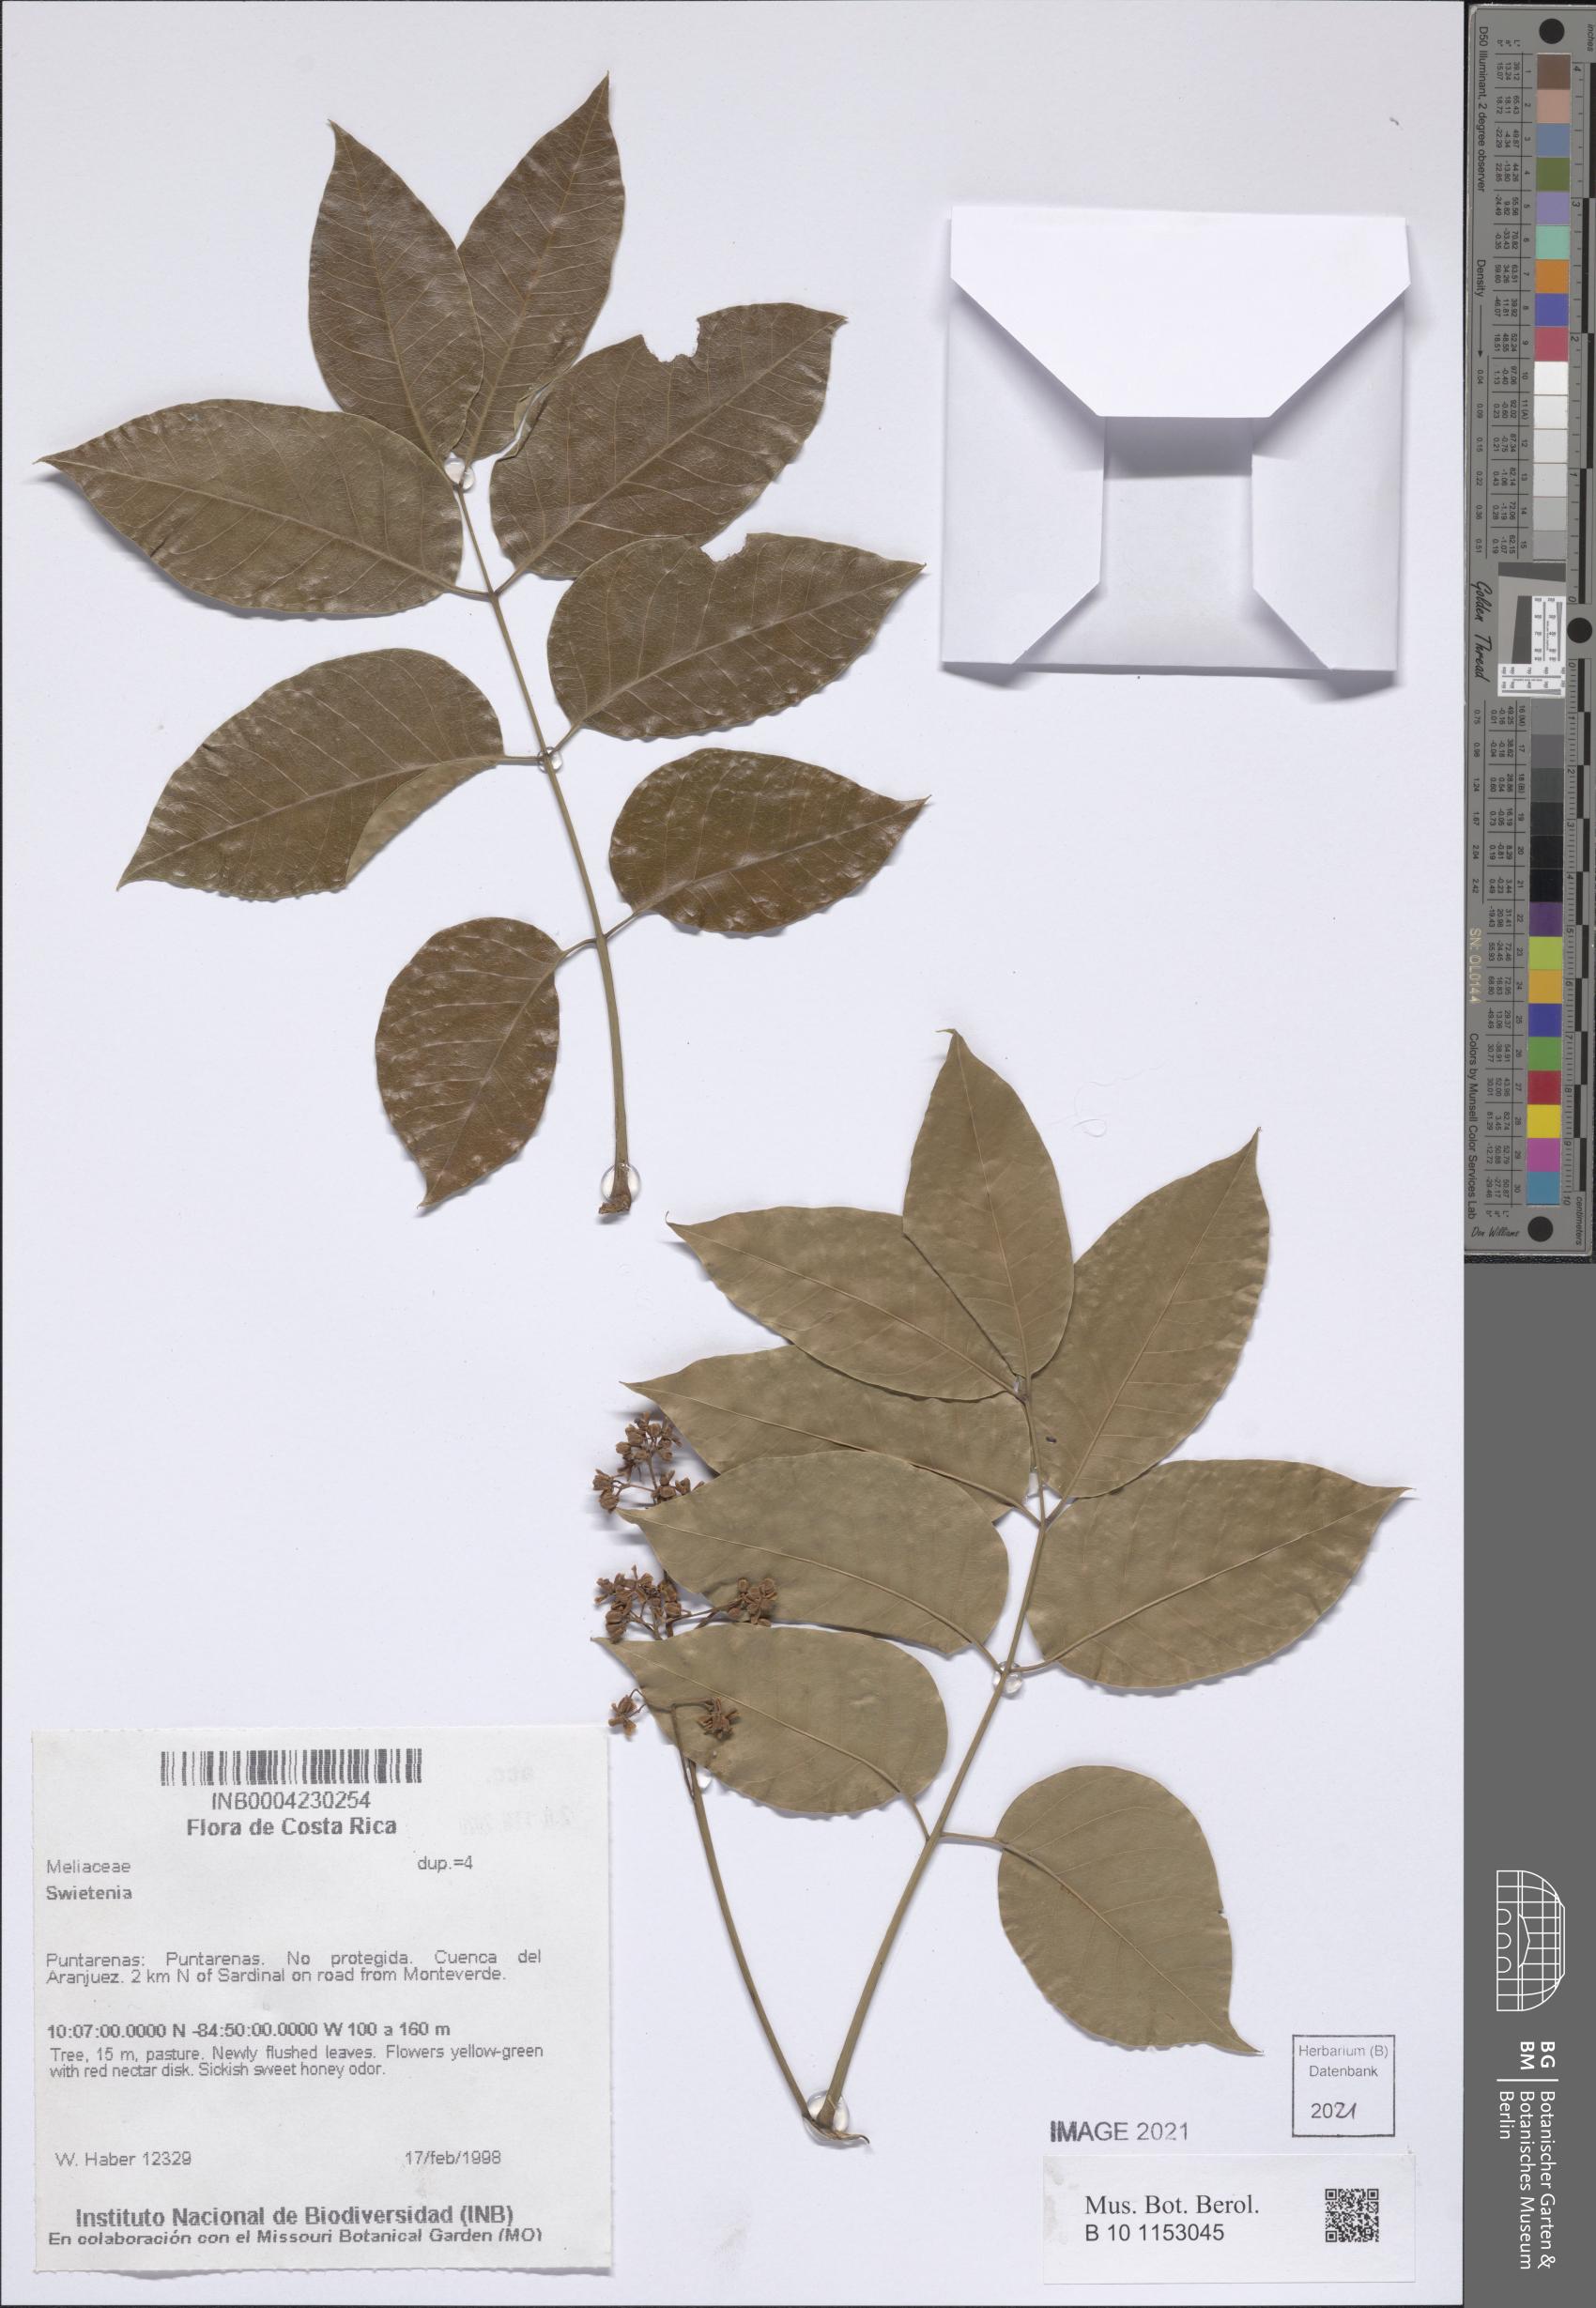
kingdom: Plantae
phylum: Tracheophyta
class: Magnoliopsida
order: Sapindales
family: Meliaceae
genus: Swietenia
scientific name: Swietenia
